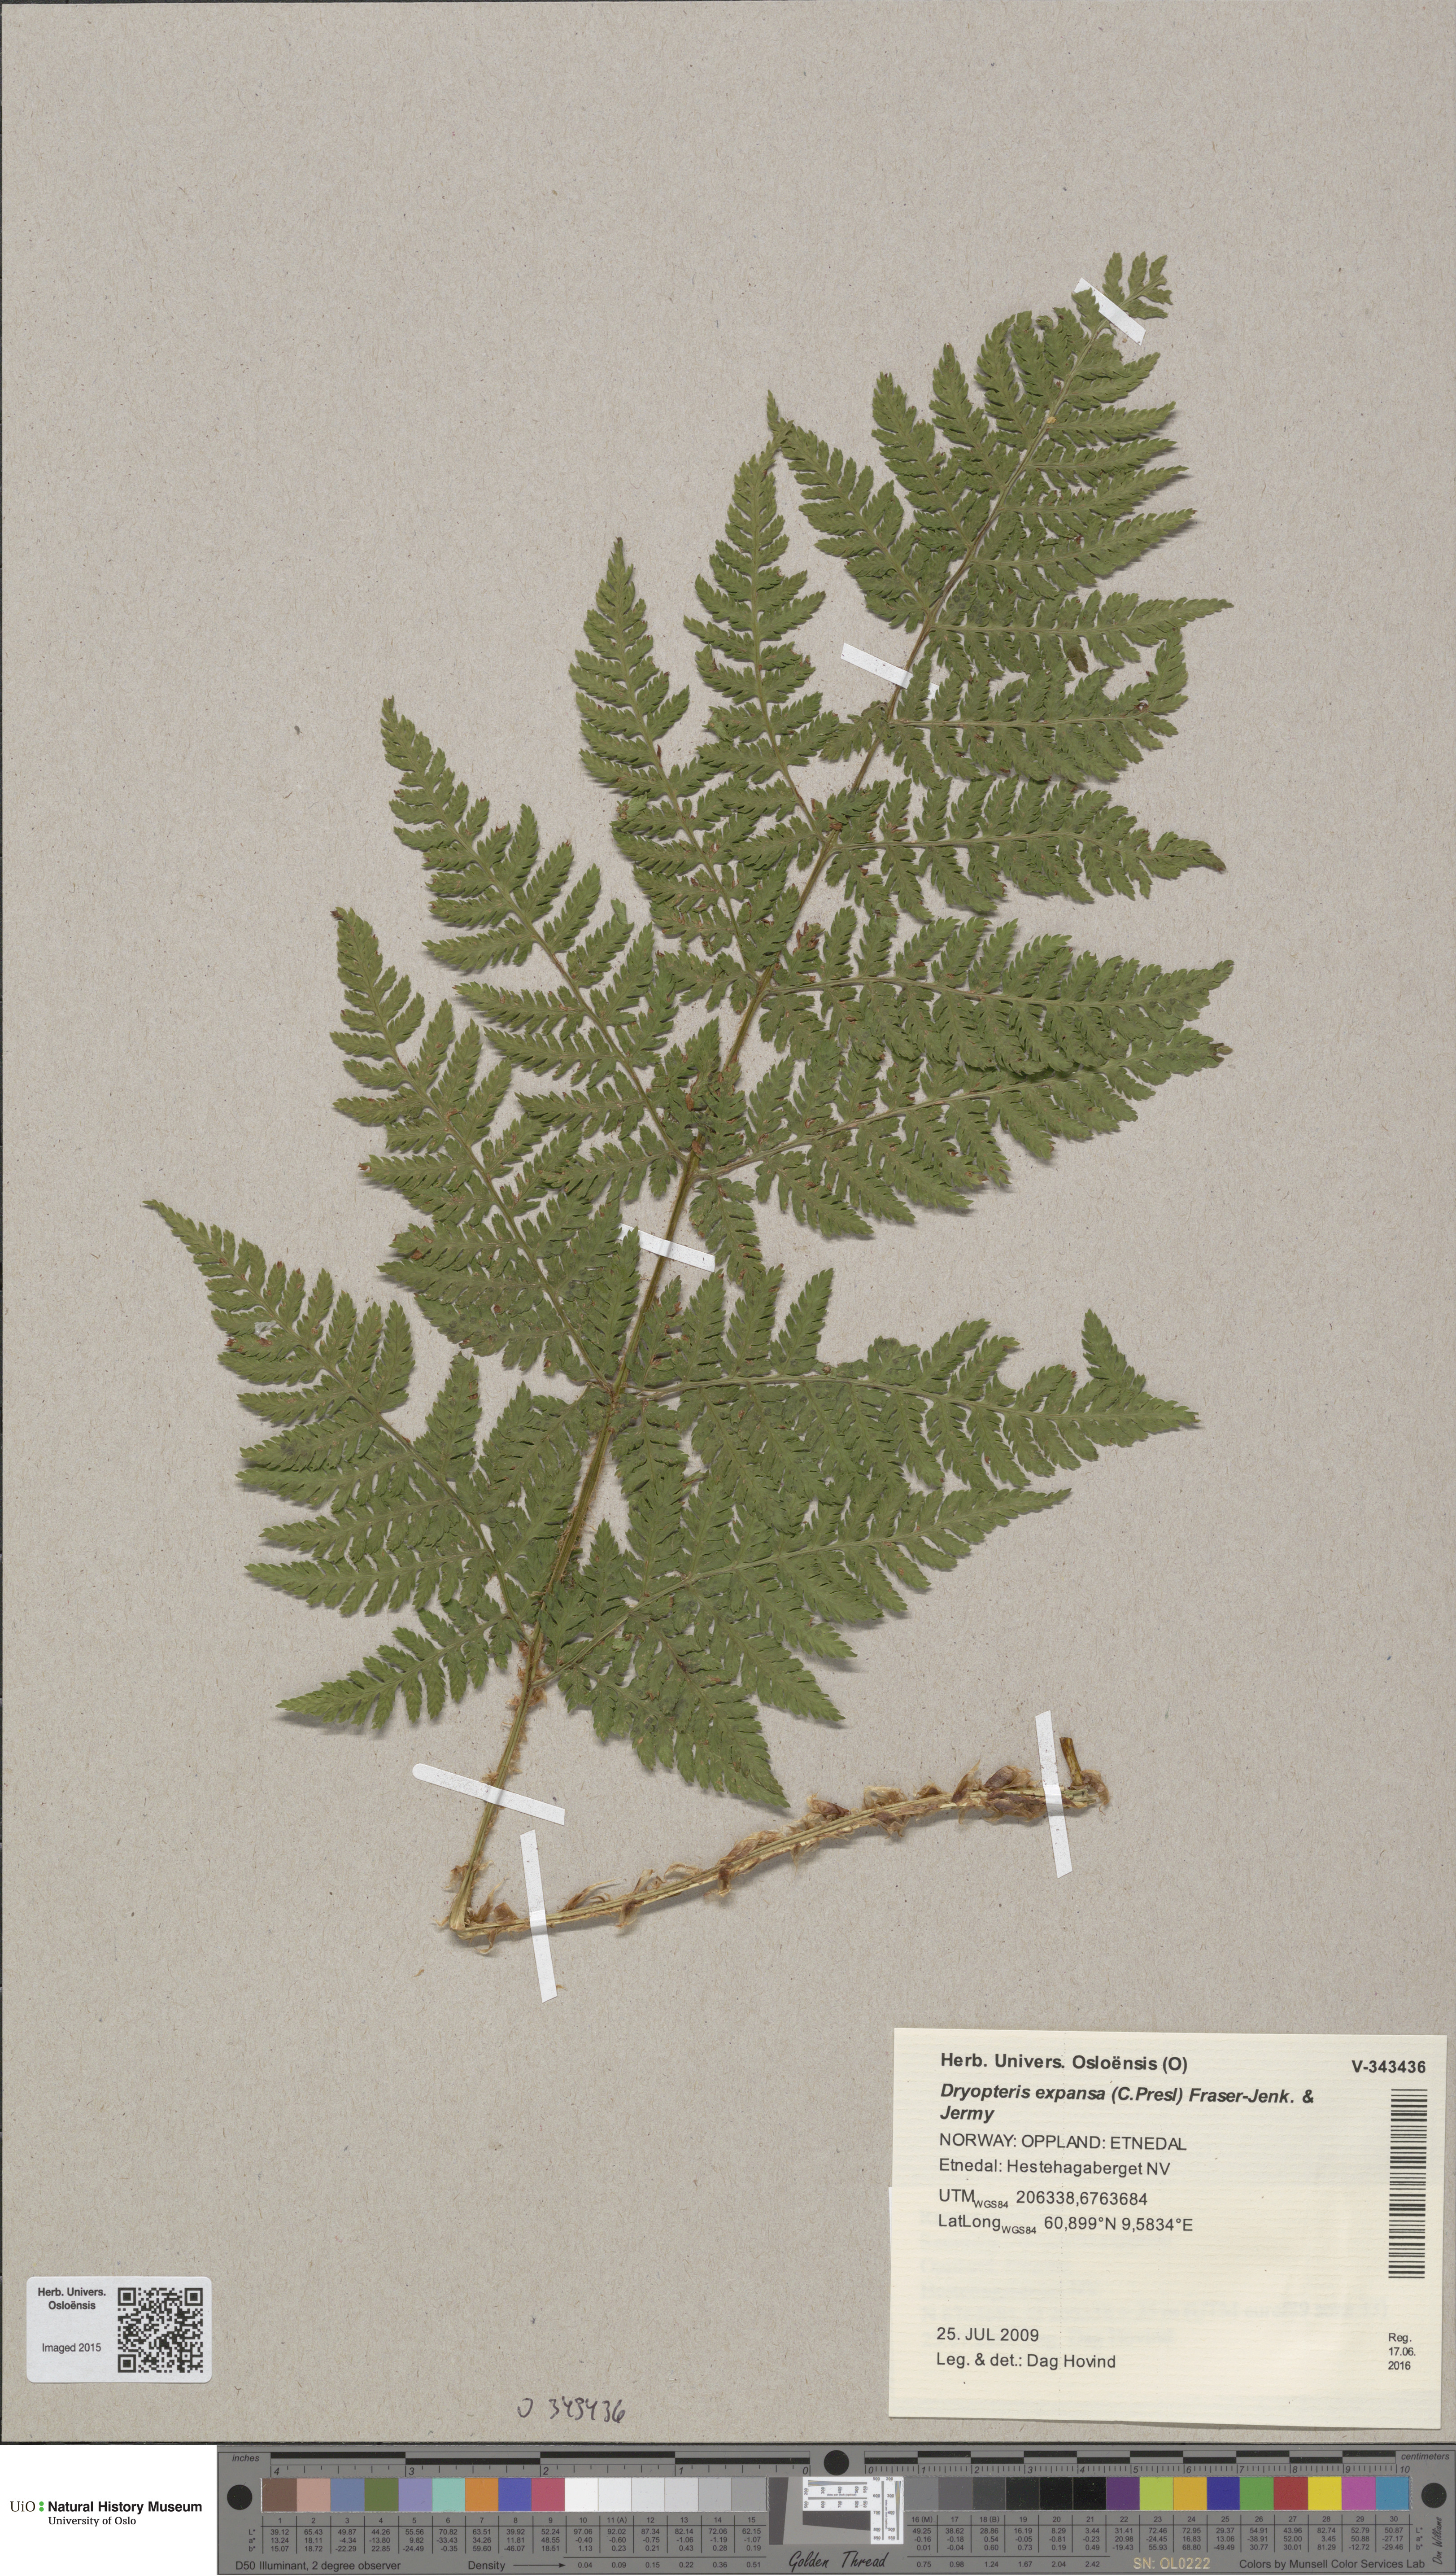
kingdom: Plantae
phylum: Tracheophyta
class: Polypodiopsida
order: Polypodiales
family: Dryopteridaceae
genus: Dryopteris
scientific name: Dryopteris expansa
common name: Northern buckler fern
